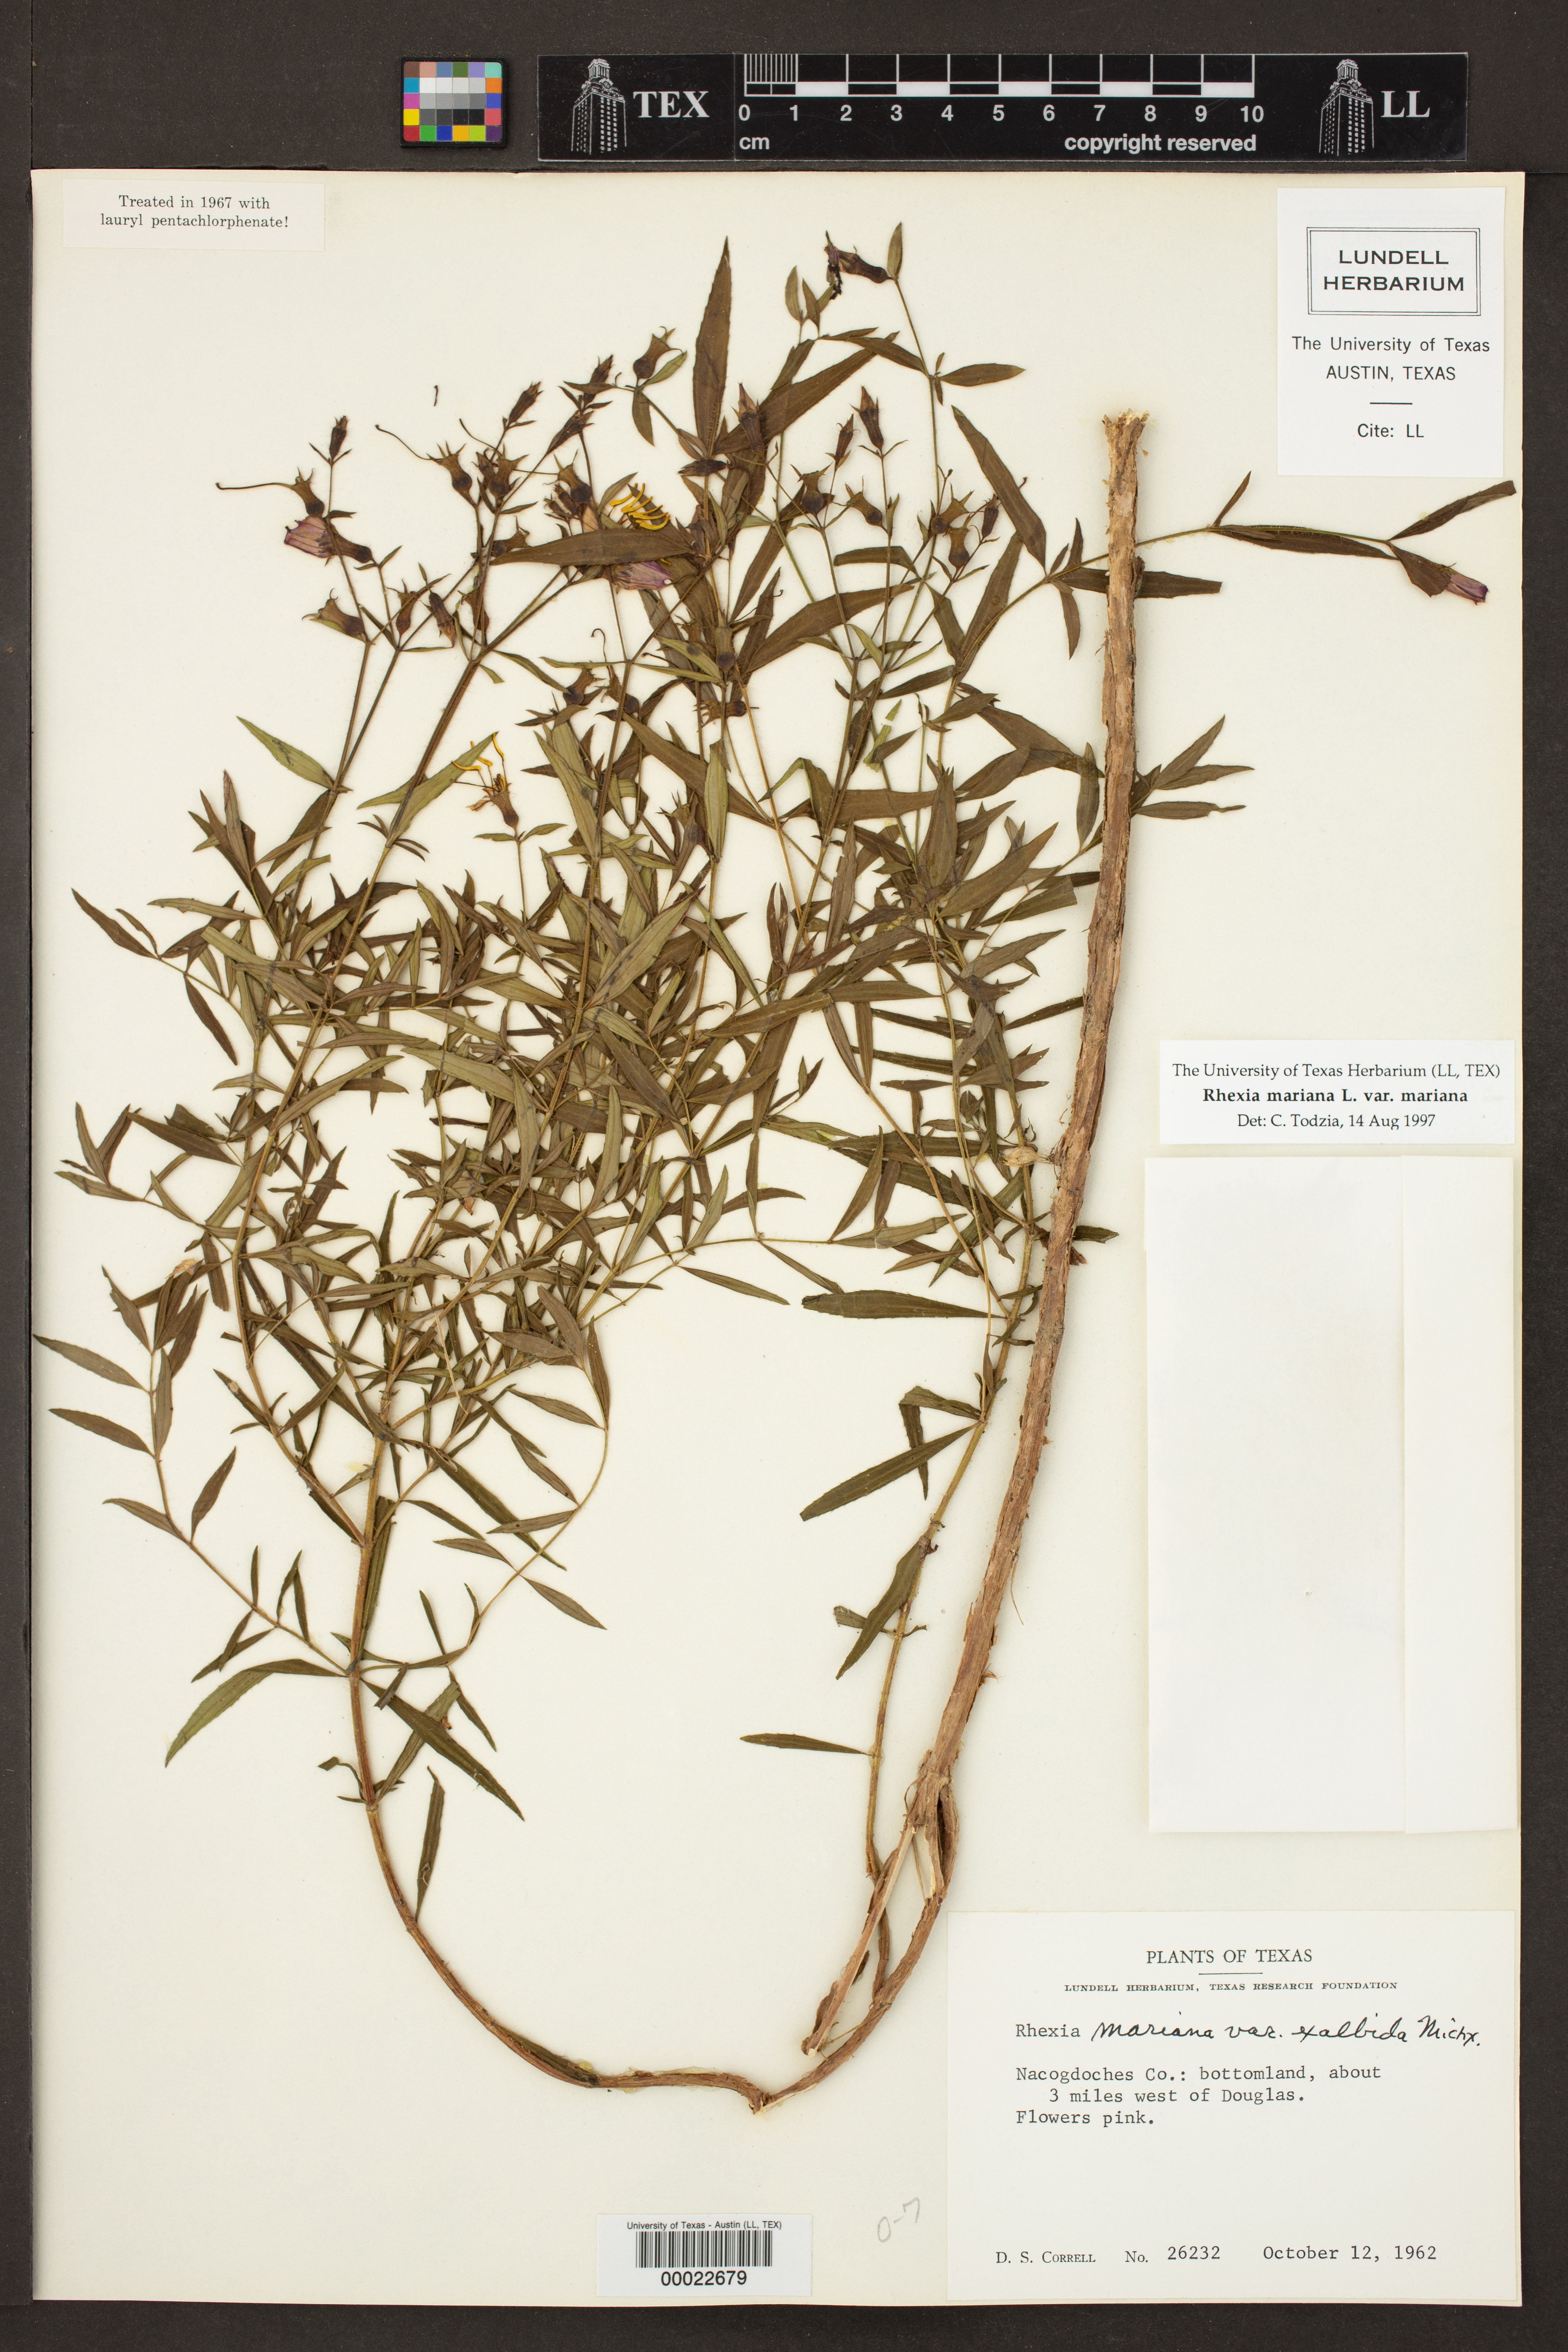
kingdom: Plantae
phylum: Tracheophyta
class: Magnoliopsida
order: Myrtales
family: Melastomataceae
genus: Rhexia
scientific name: Rhexia mariana
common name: Dull meadow-pitcher
